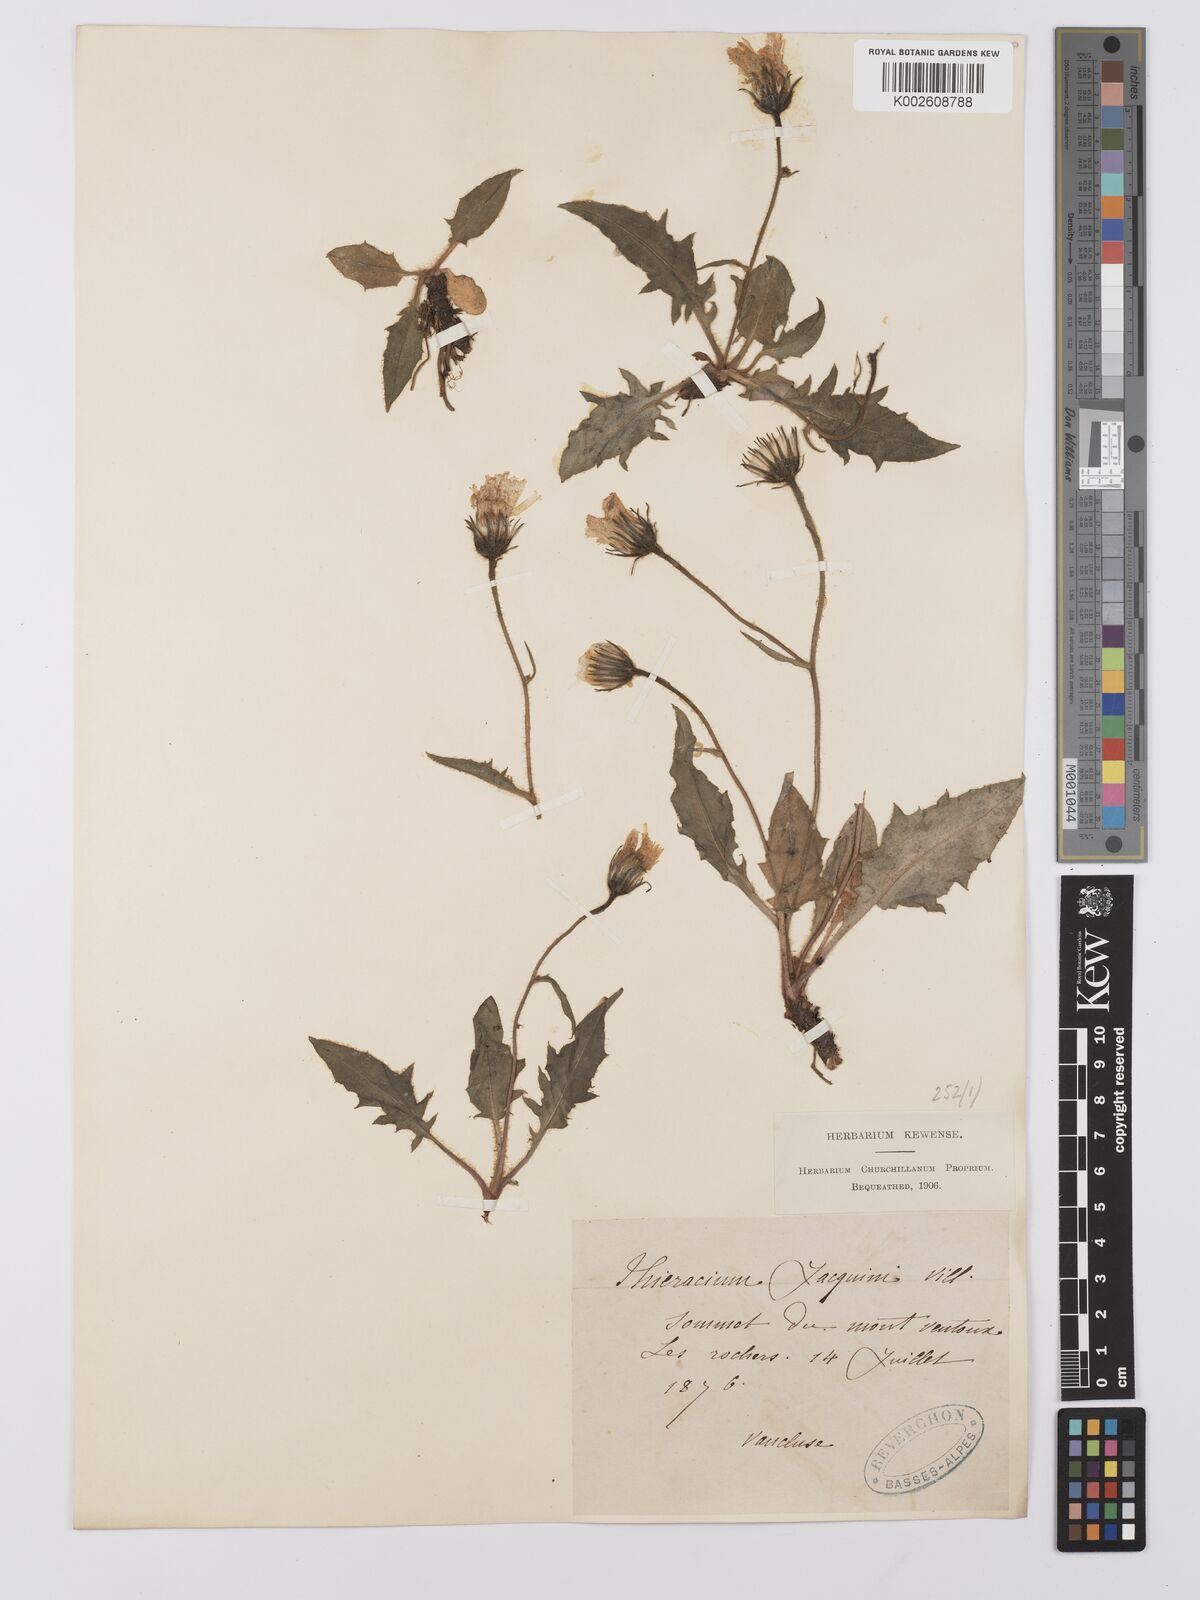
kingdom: Plantae
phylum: Tracheophyta
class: Magnoliopsida
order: Asterales
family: Asteraceae
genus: Hieracium
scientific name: Hieracium humile
